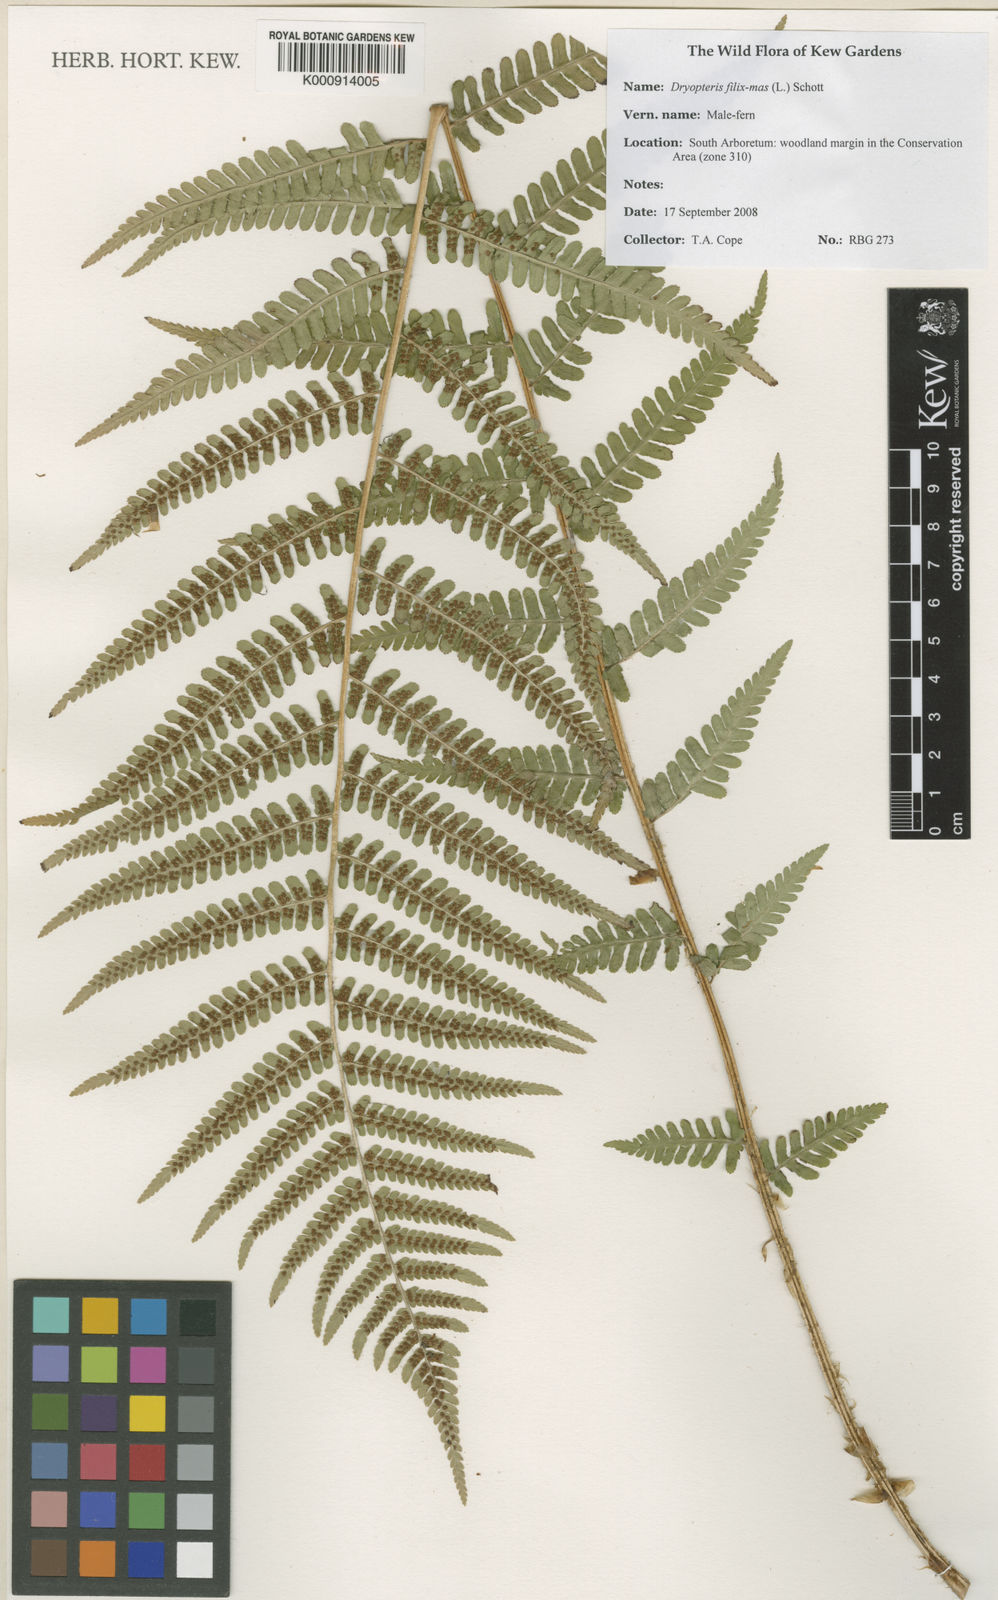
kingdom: Plantae
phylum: Tracheophyta
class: Polypodiopsida
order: Polypodiales
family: Dryopteridaceae
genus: Dryopteris
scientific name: Dryopteris filix-mas
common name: Male fern
